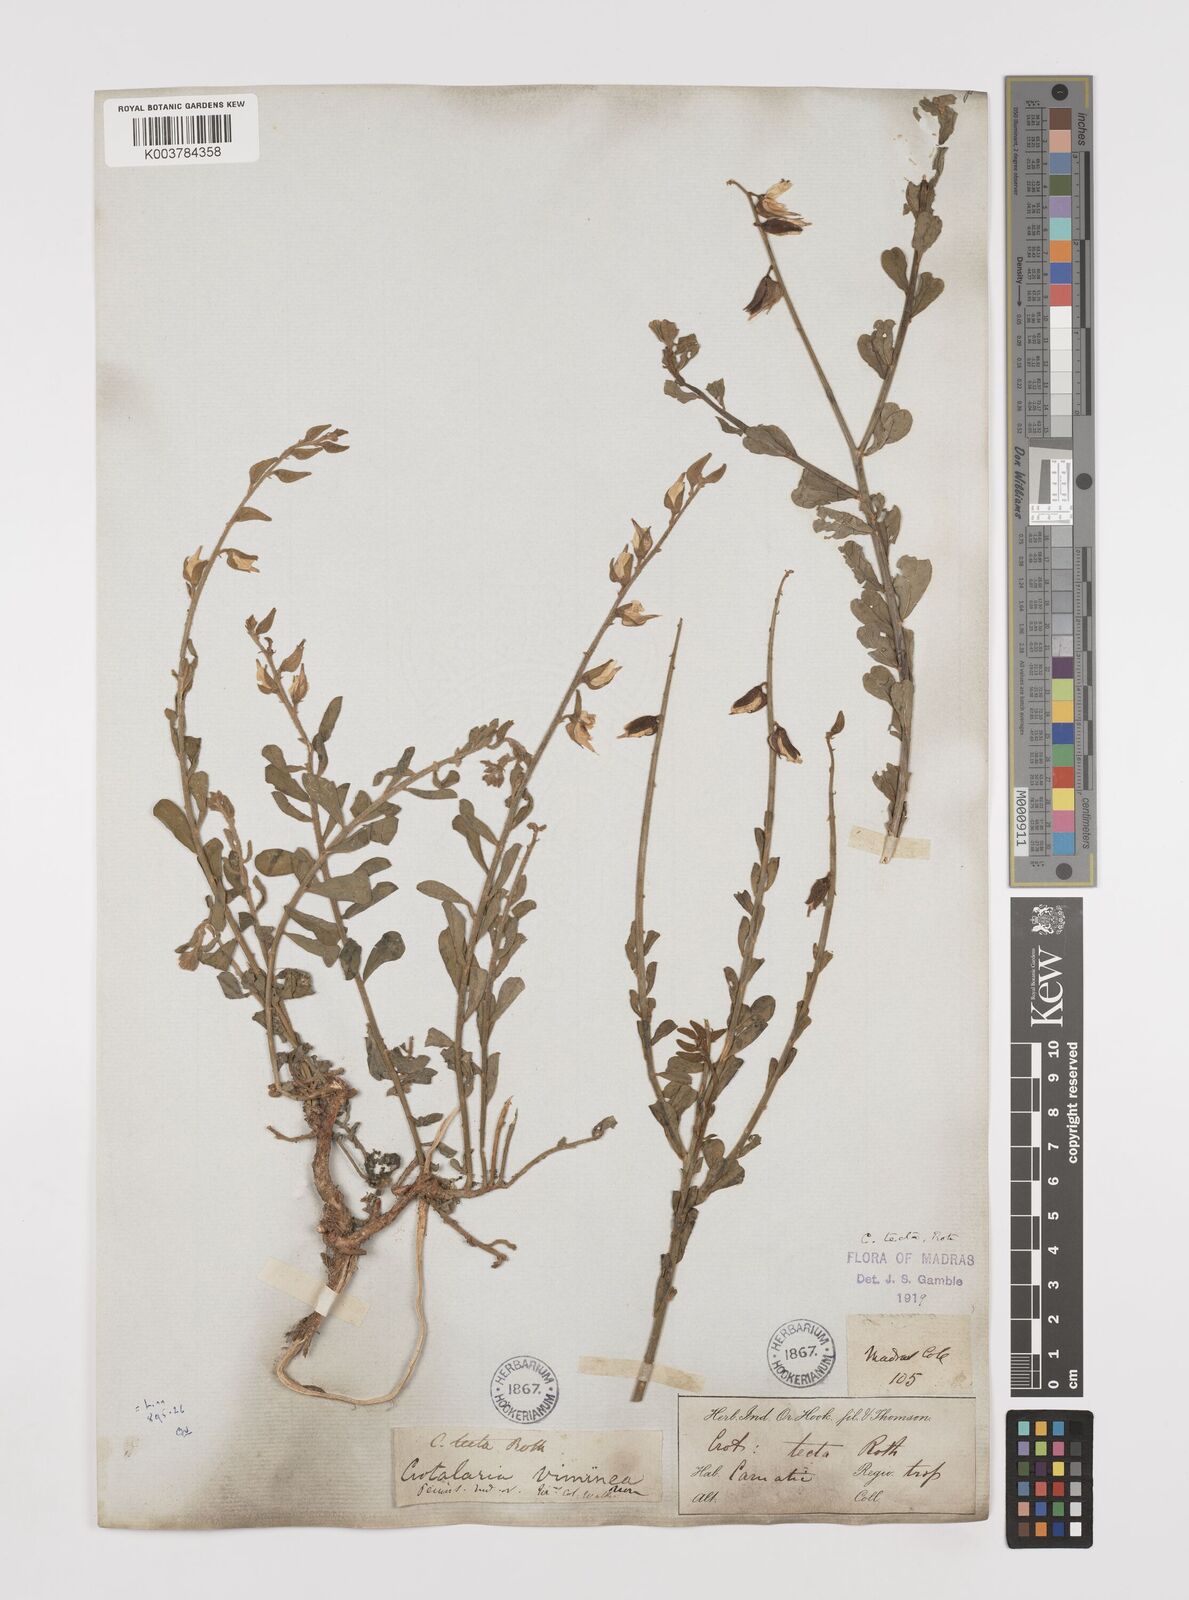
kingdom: Plantae
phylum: Tracheophyta
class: Magnoliopsida
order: Fabales
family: Fabaceae
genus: Crotalaria
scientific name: Crotalaria linifolia
